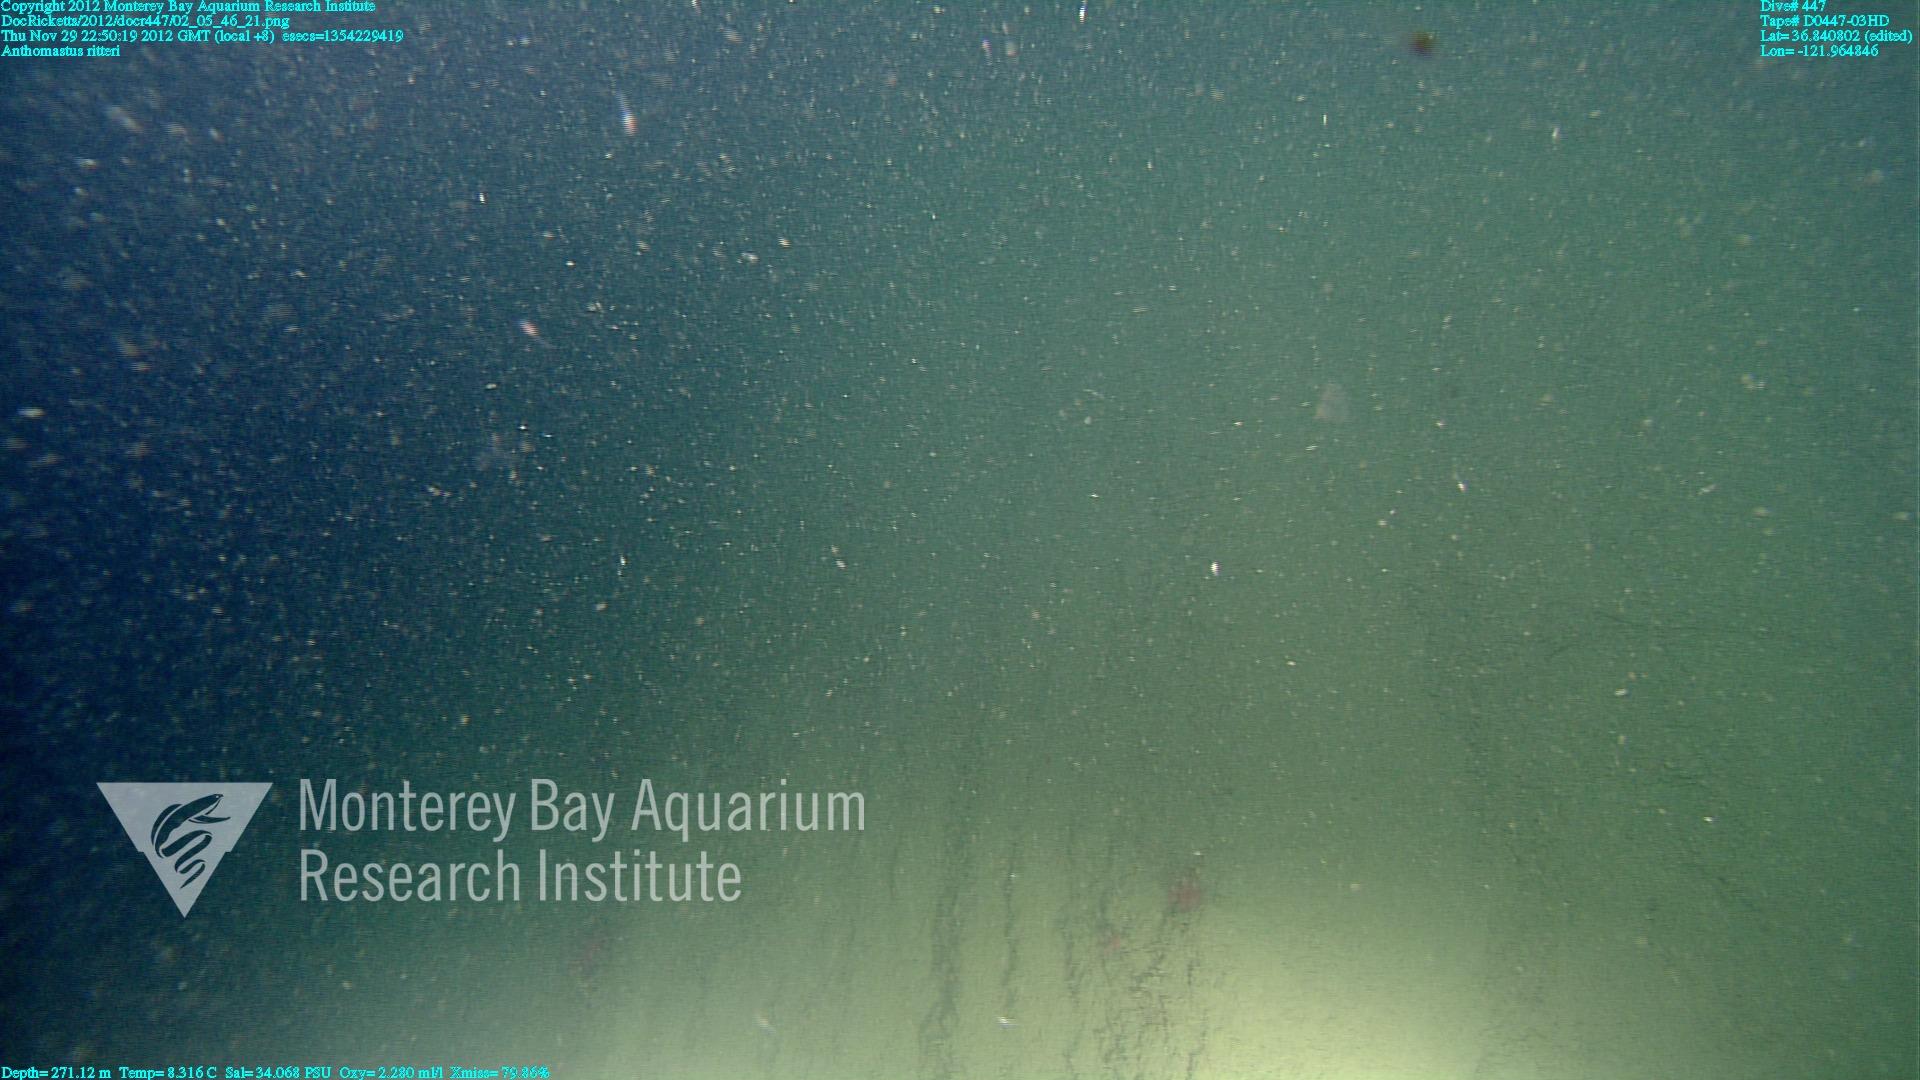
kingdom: Animalia
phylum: Cnidaria
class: Anthozoa
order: Scleralcyonacea
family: Coralliidae
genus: Heteropolypus
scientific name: Heteropolypus ritteri
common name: Ritter's soft coral
